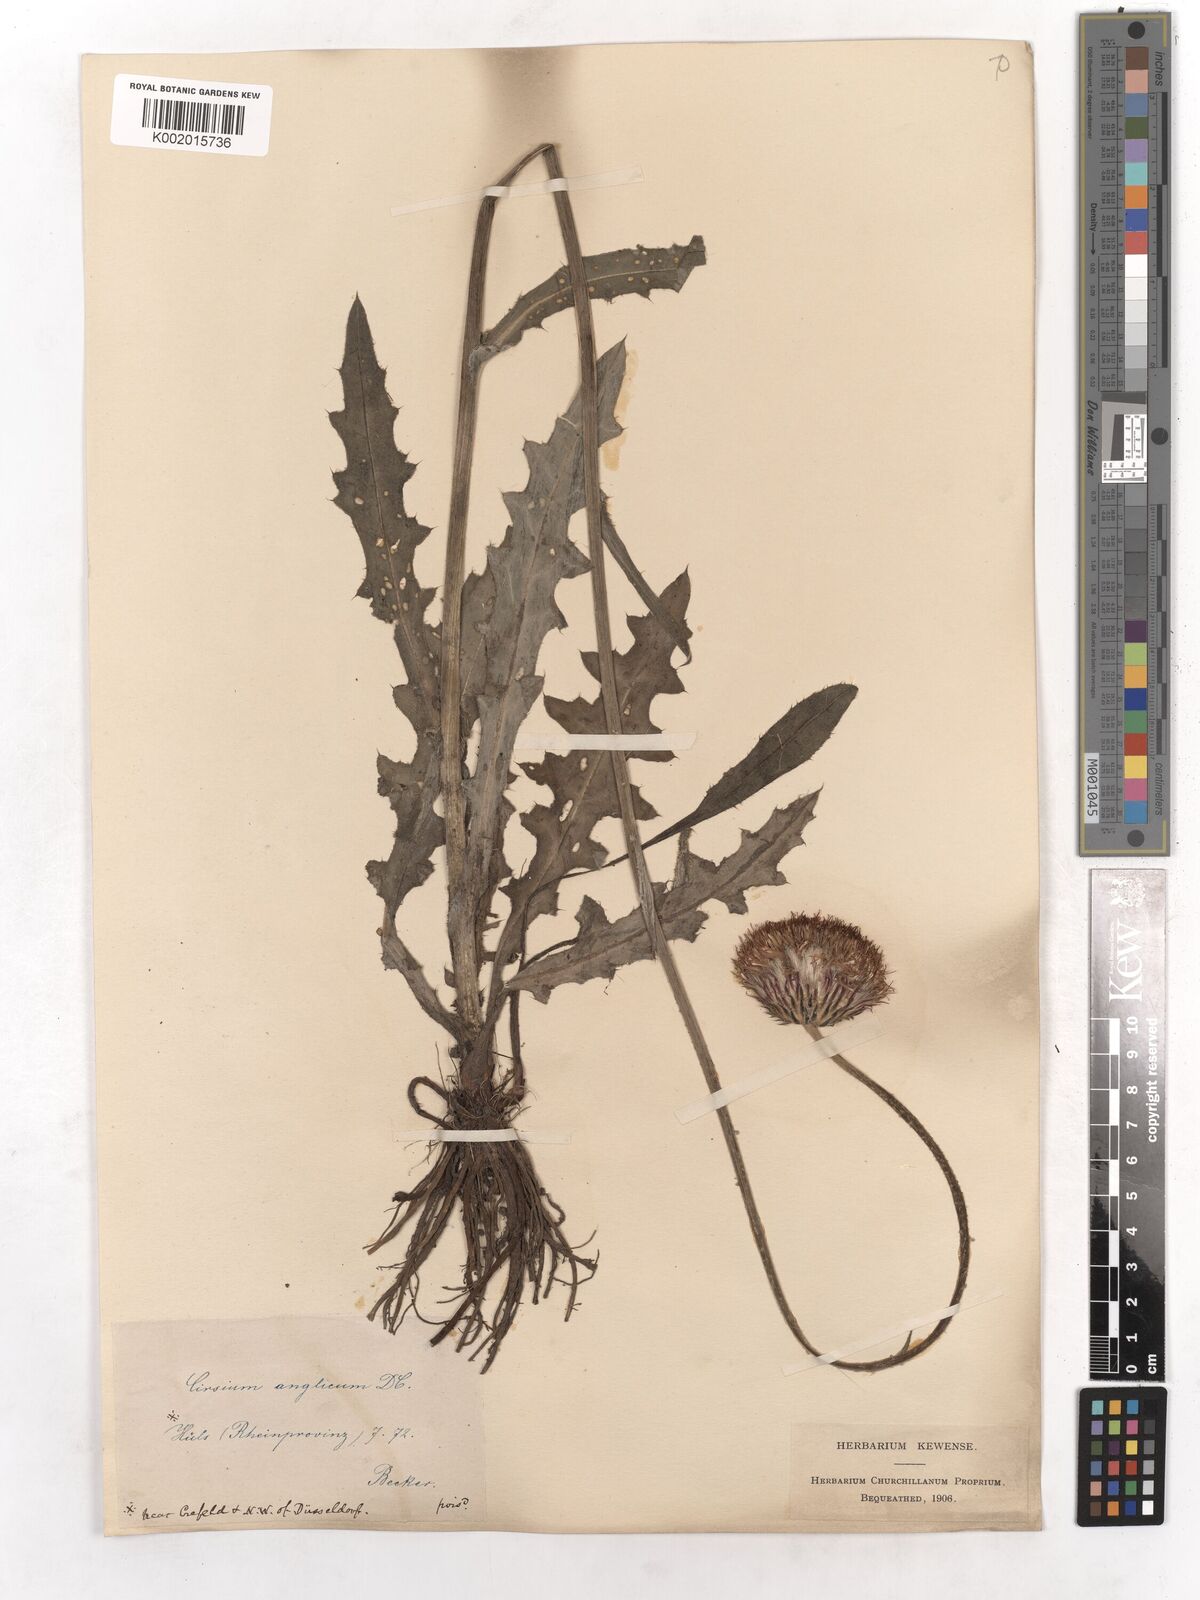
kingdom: Plantae
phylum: Tracheophyta
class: Magnoliopsida
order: Asterales
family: Asteraceae
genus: Cirsium
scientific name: Cirsium dissectum
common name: Meadow thistle
